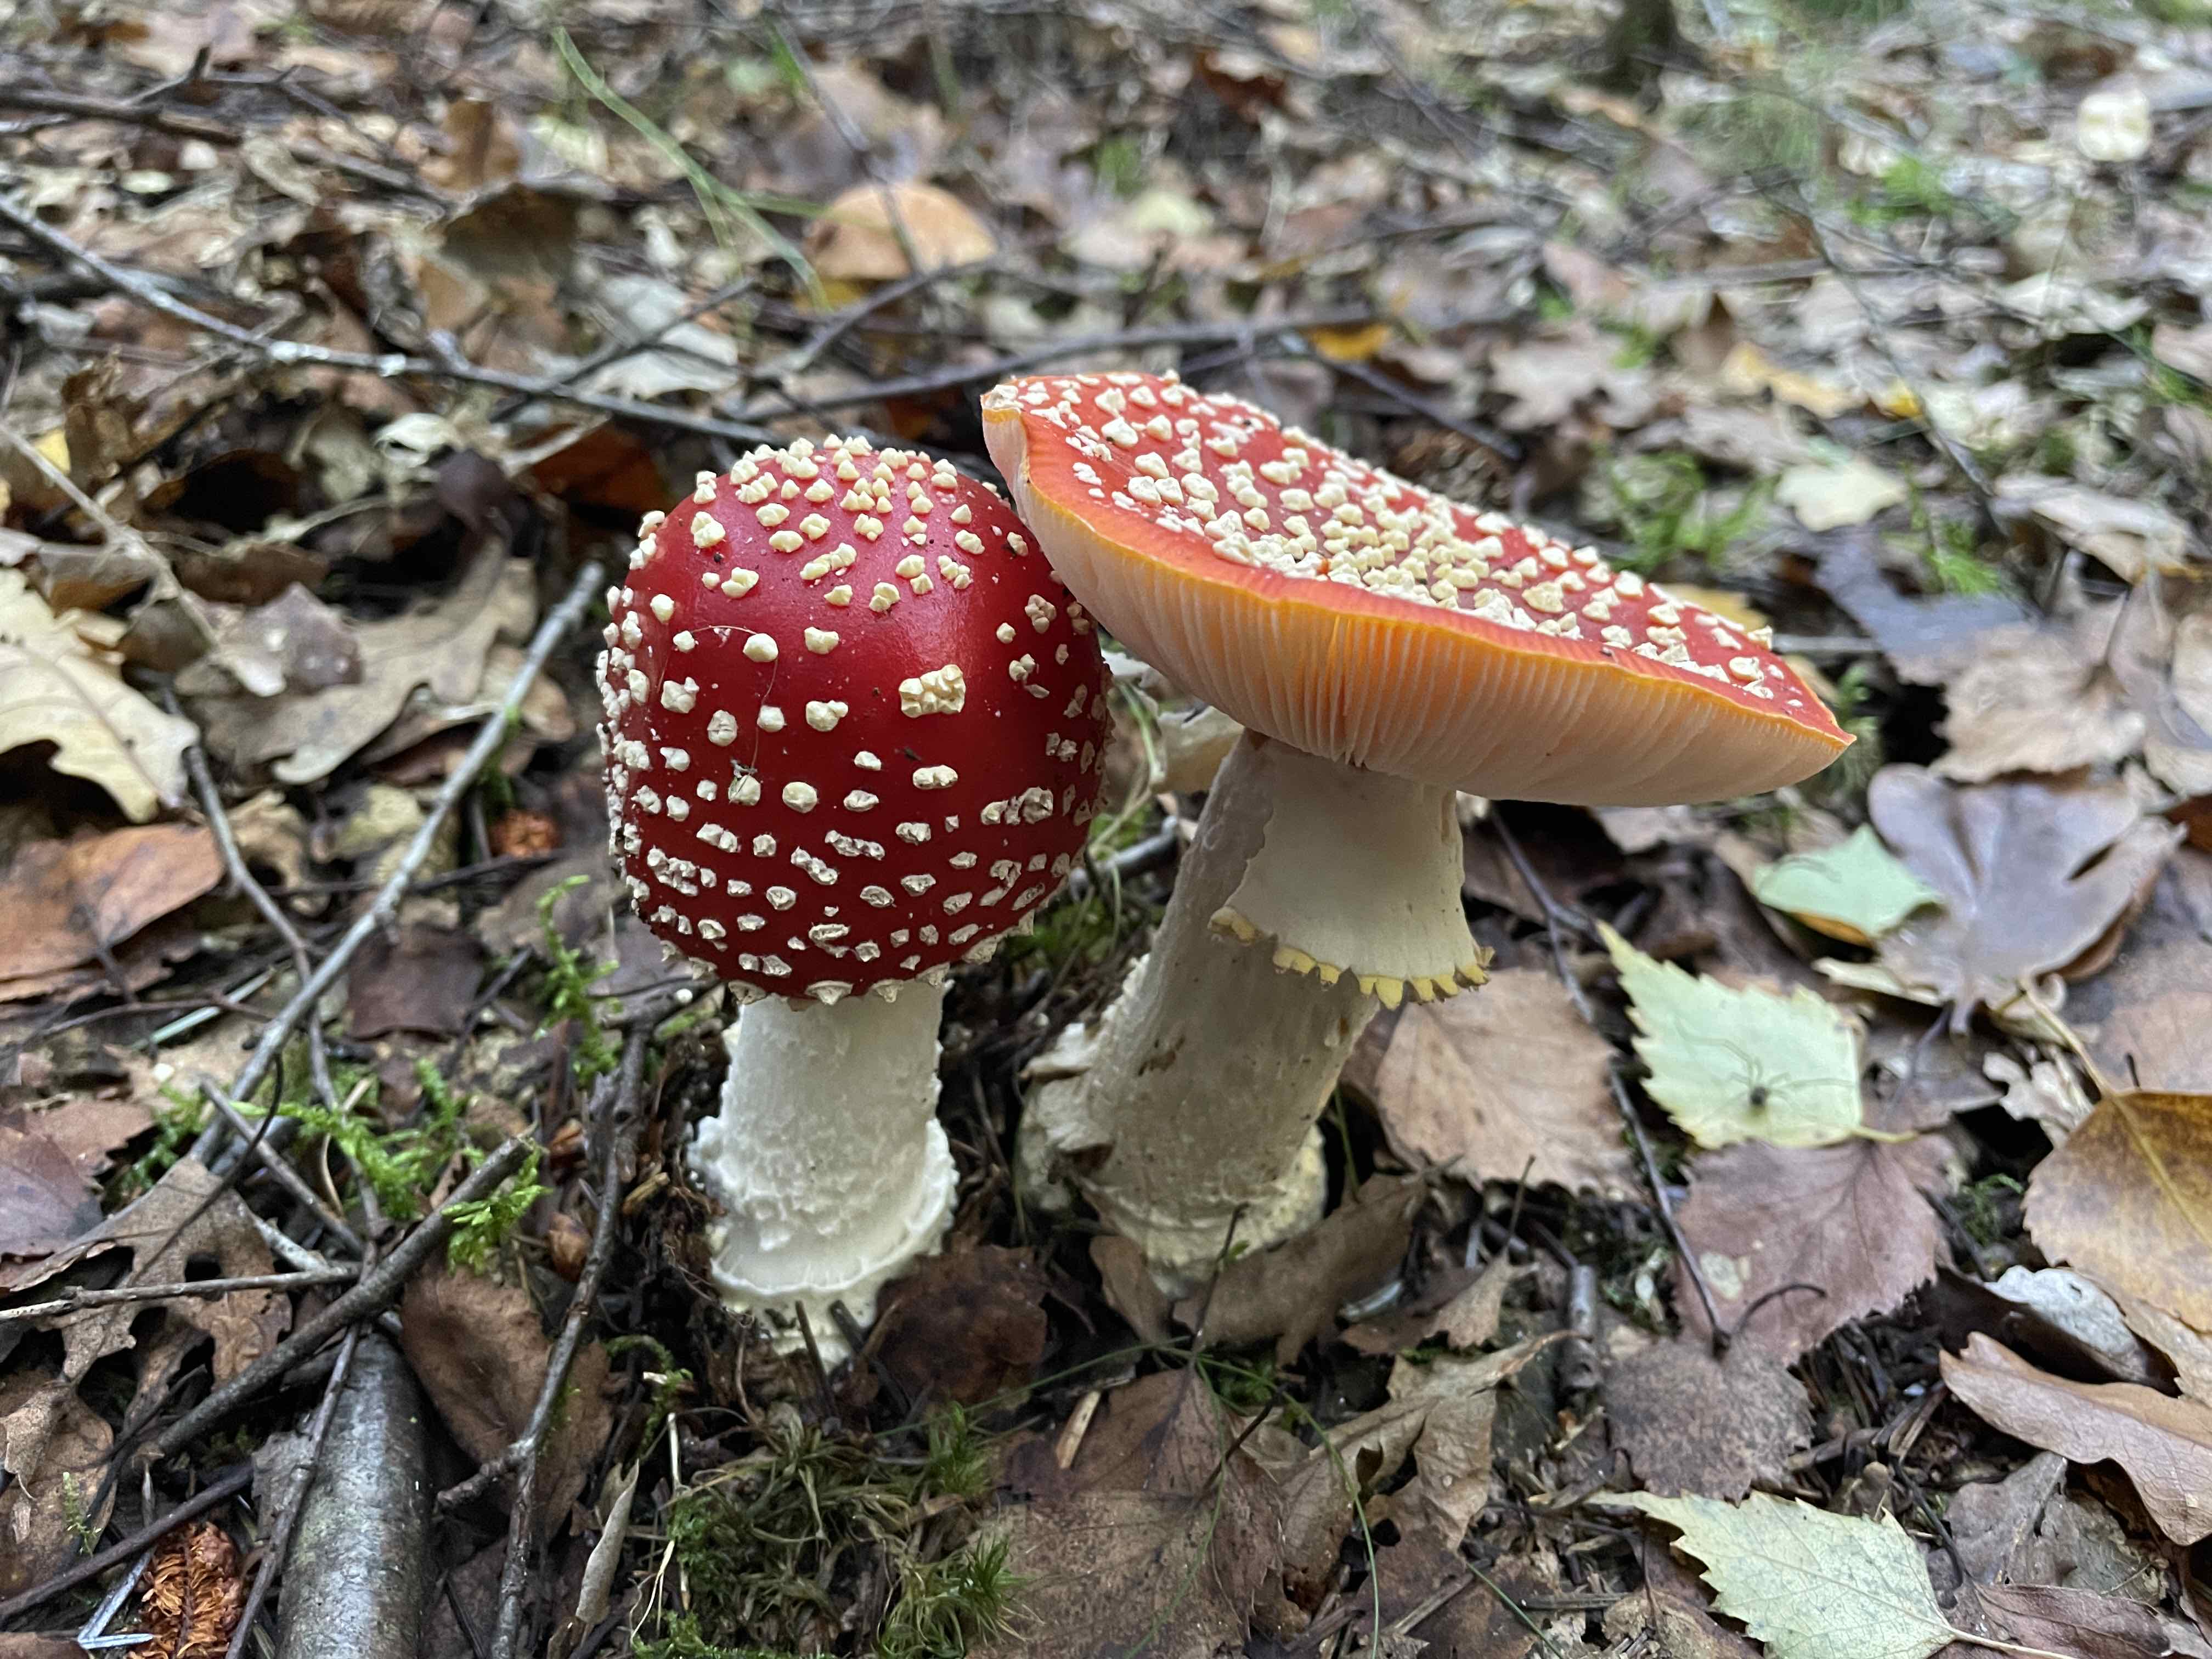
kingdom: Fungi
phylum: Basidiomycota
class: Agaricomycetes
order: Agaricales
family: Amanitaceae
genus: Amanita
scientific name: Amanita muscaria
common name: rød fluesvamp
